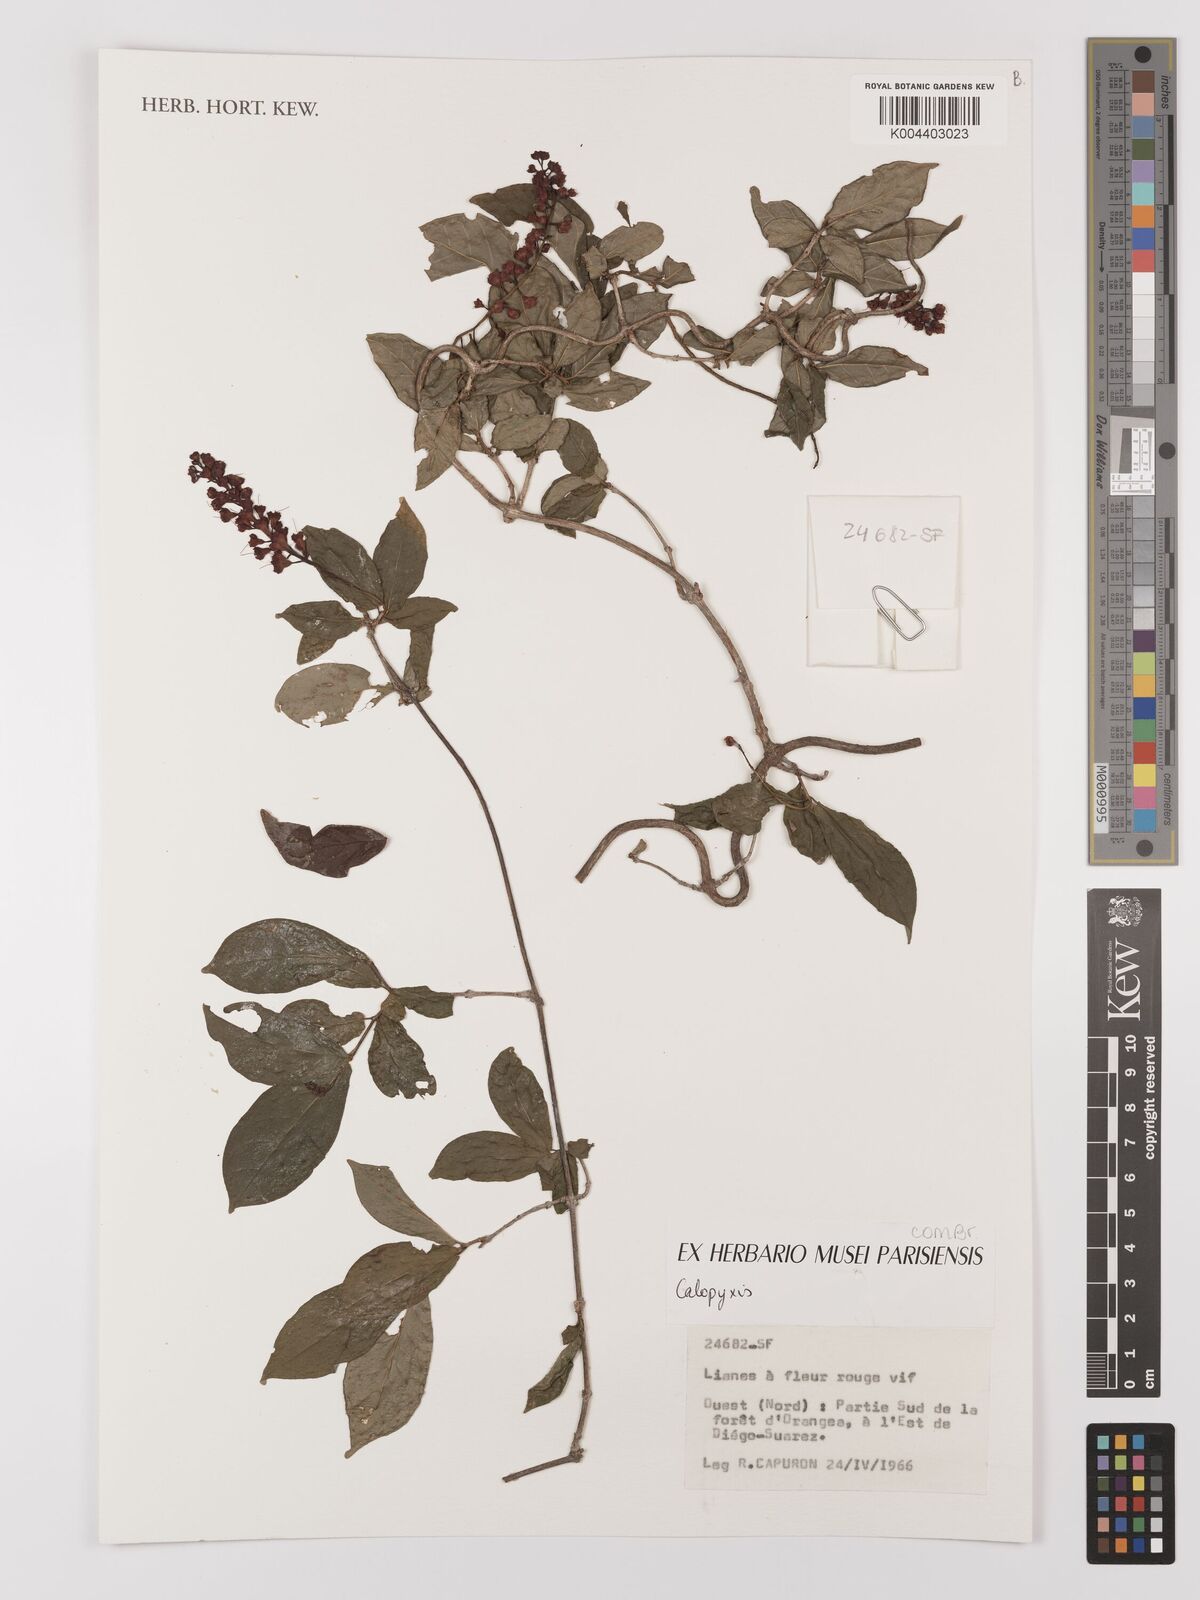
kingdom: Plantae
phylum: Tracheophyta
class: Magnoliopsida
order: Myrtales
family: Combretaceae
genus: Combretum
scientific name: Combretum
